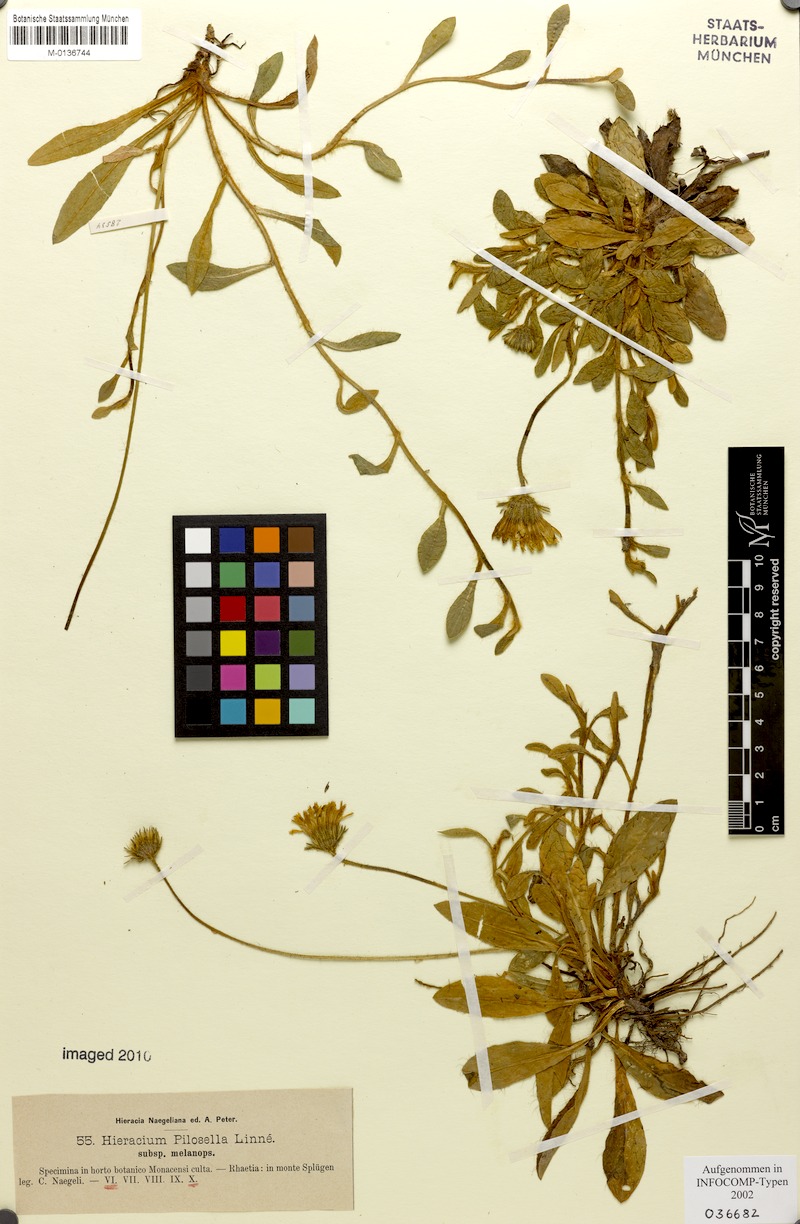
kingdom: Plantae
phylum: Tracheophyta
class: Magnoliopsida
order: Asterales
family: Asteraceae
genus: Pilosella
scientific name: Pilosella officinarum
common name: Mouse-ear hawkweed
